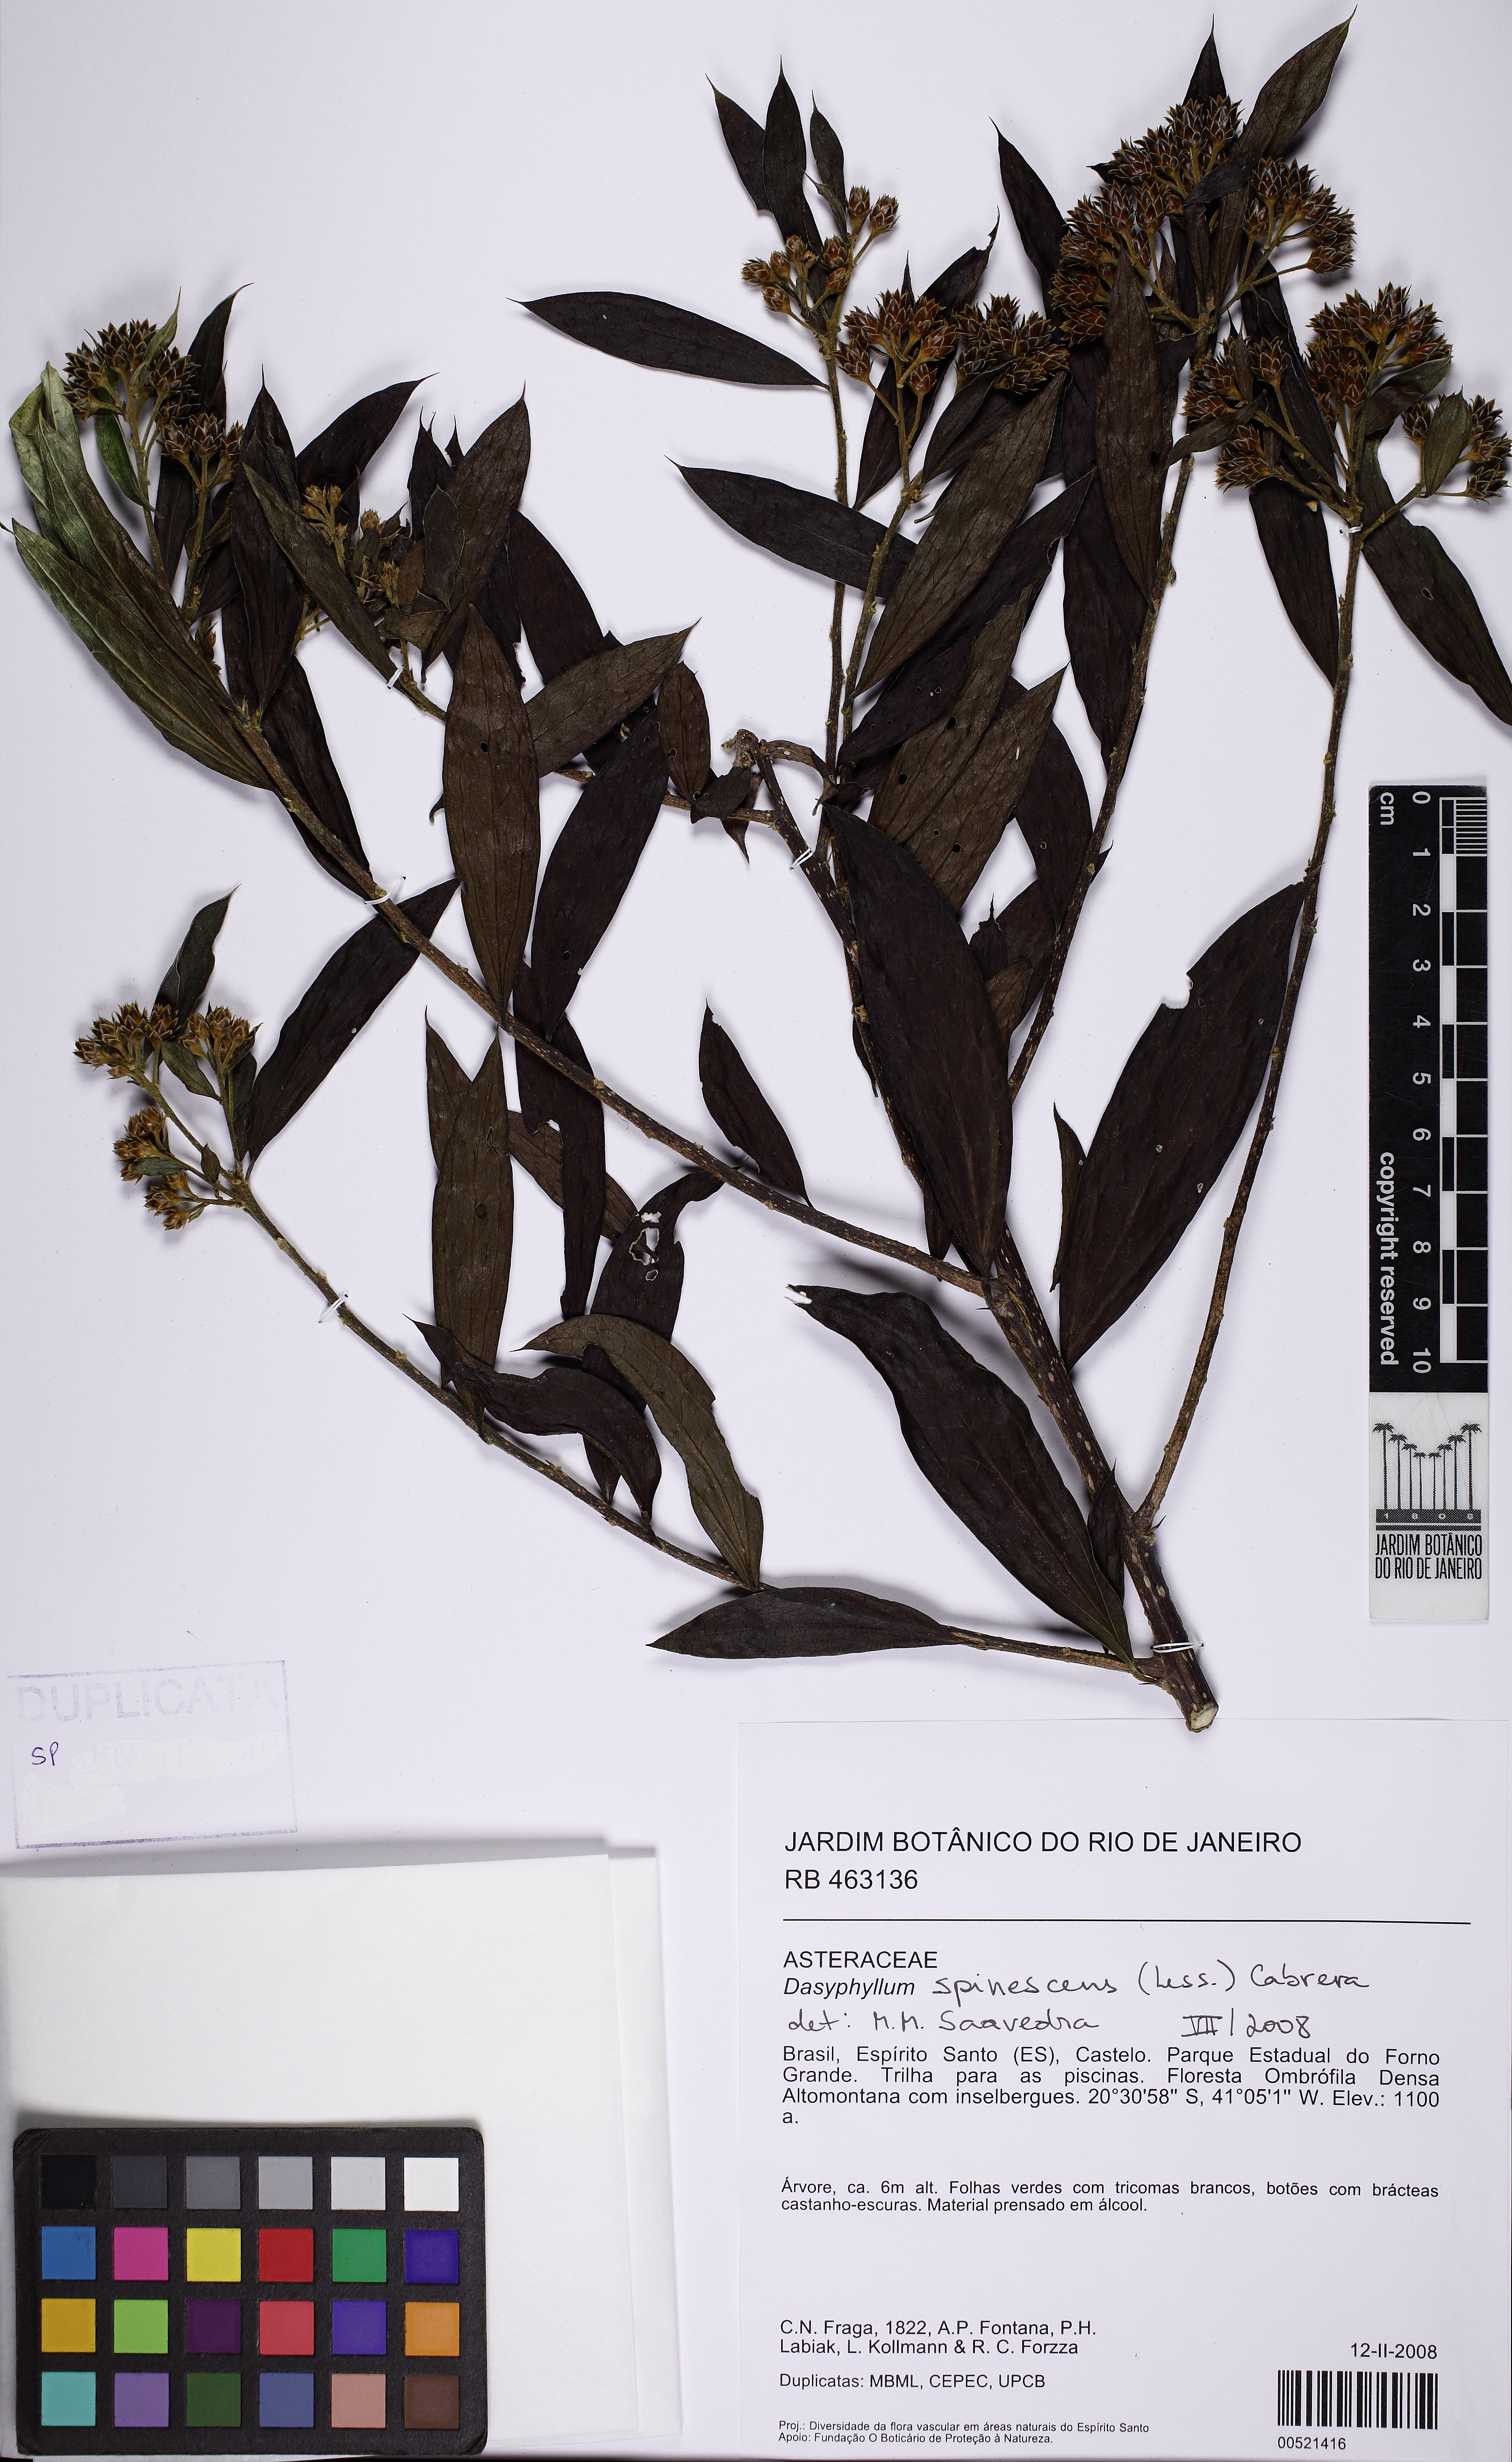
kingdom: Plantae
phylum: Tracheophyta
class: Magnoliopsida
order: Asterales
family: Asteraceae
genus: Dasyphyllum
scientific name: Dasyphyllum spinescens
